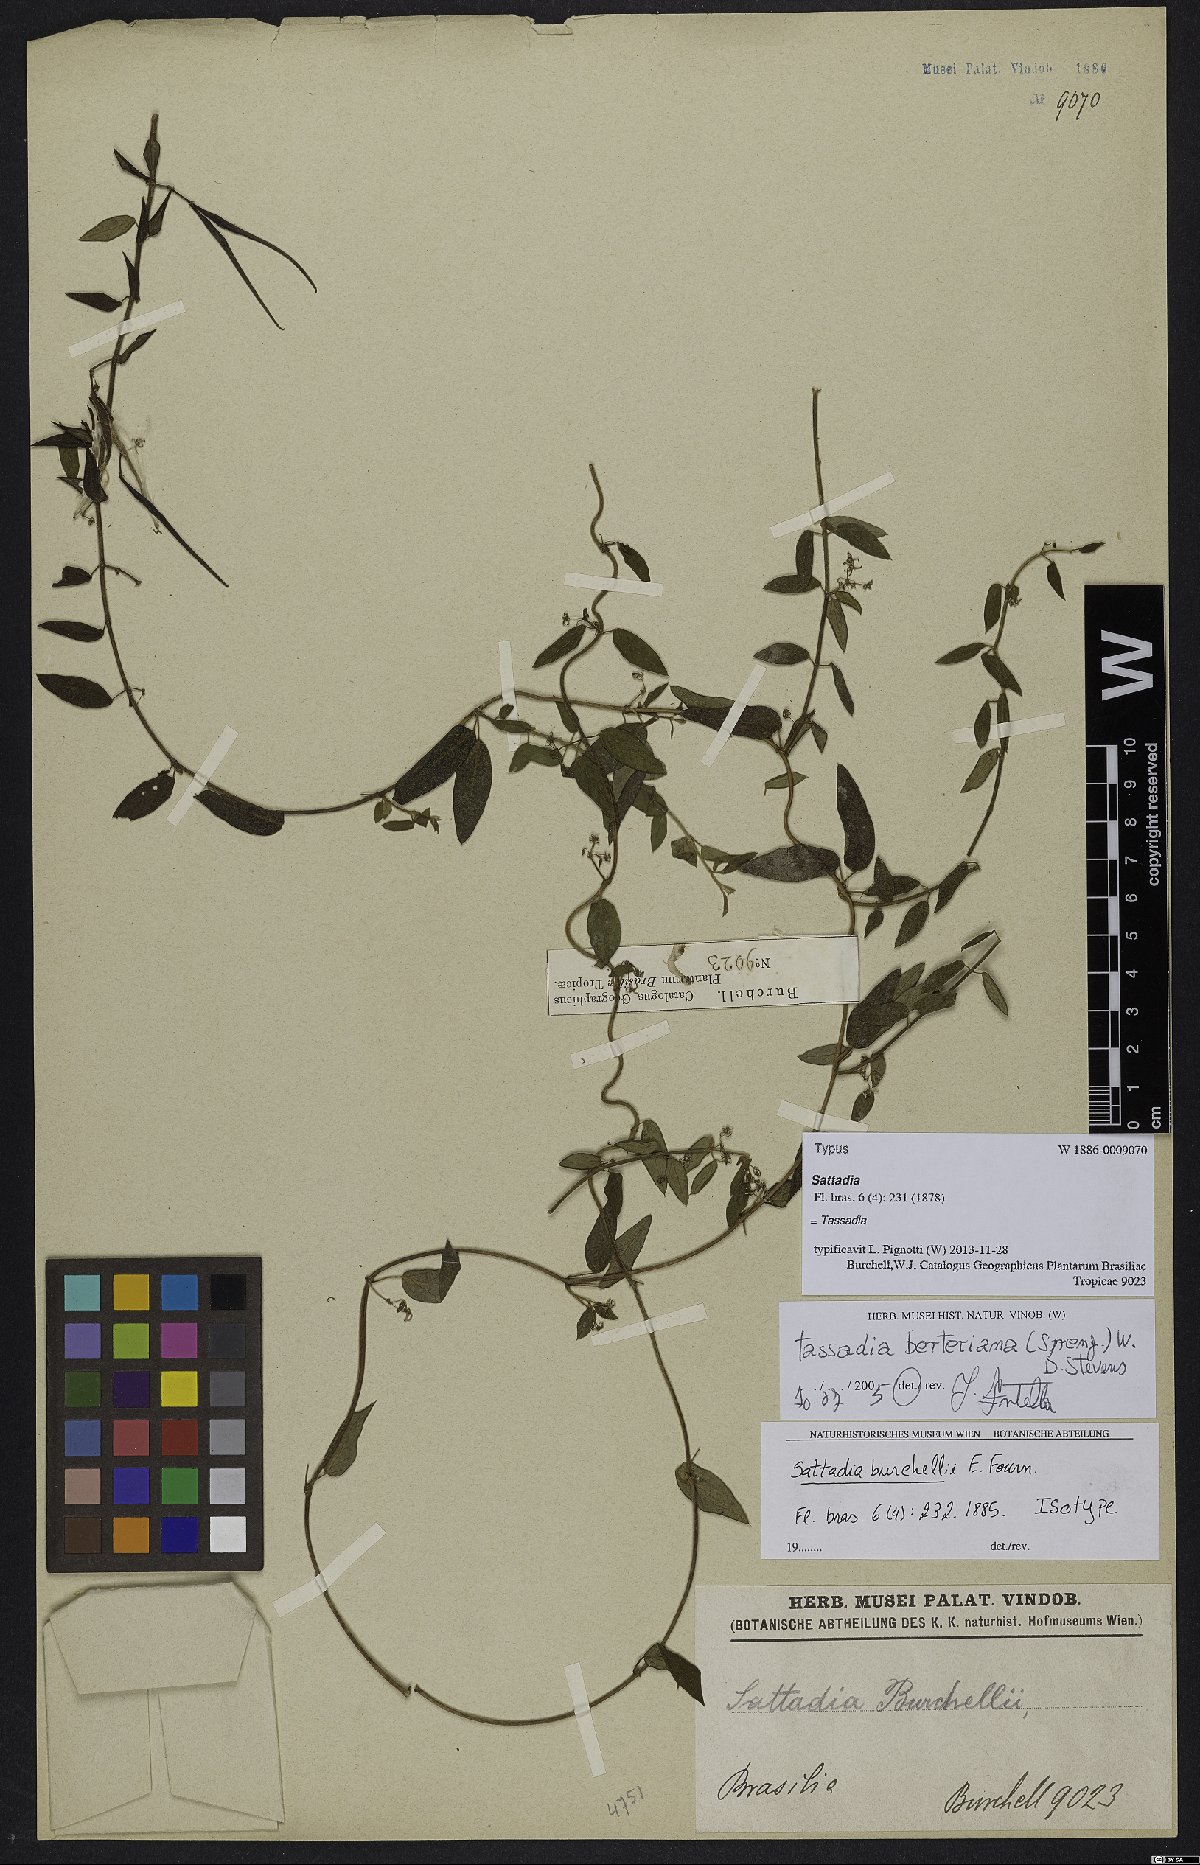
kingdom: Plantae
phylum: Tracheophyta
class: Magnoliopsida
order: Gentianales
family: Apocynaceae
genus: Tassadia
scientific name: Tassadia berteroana
